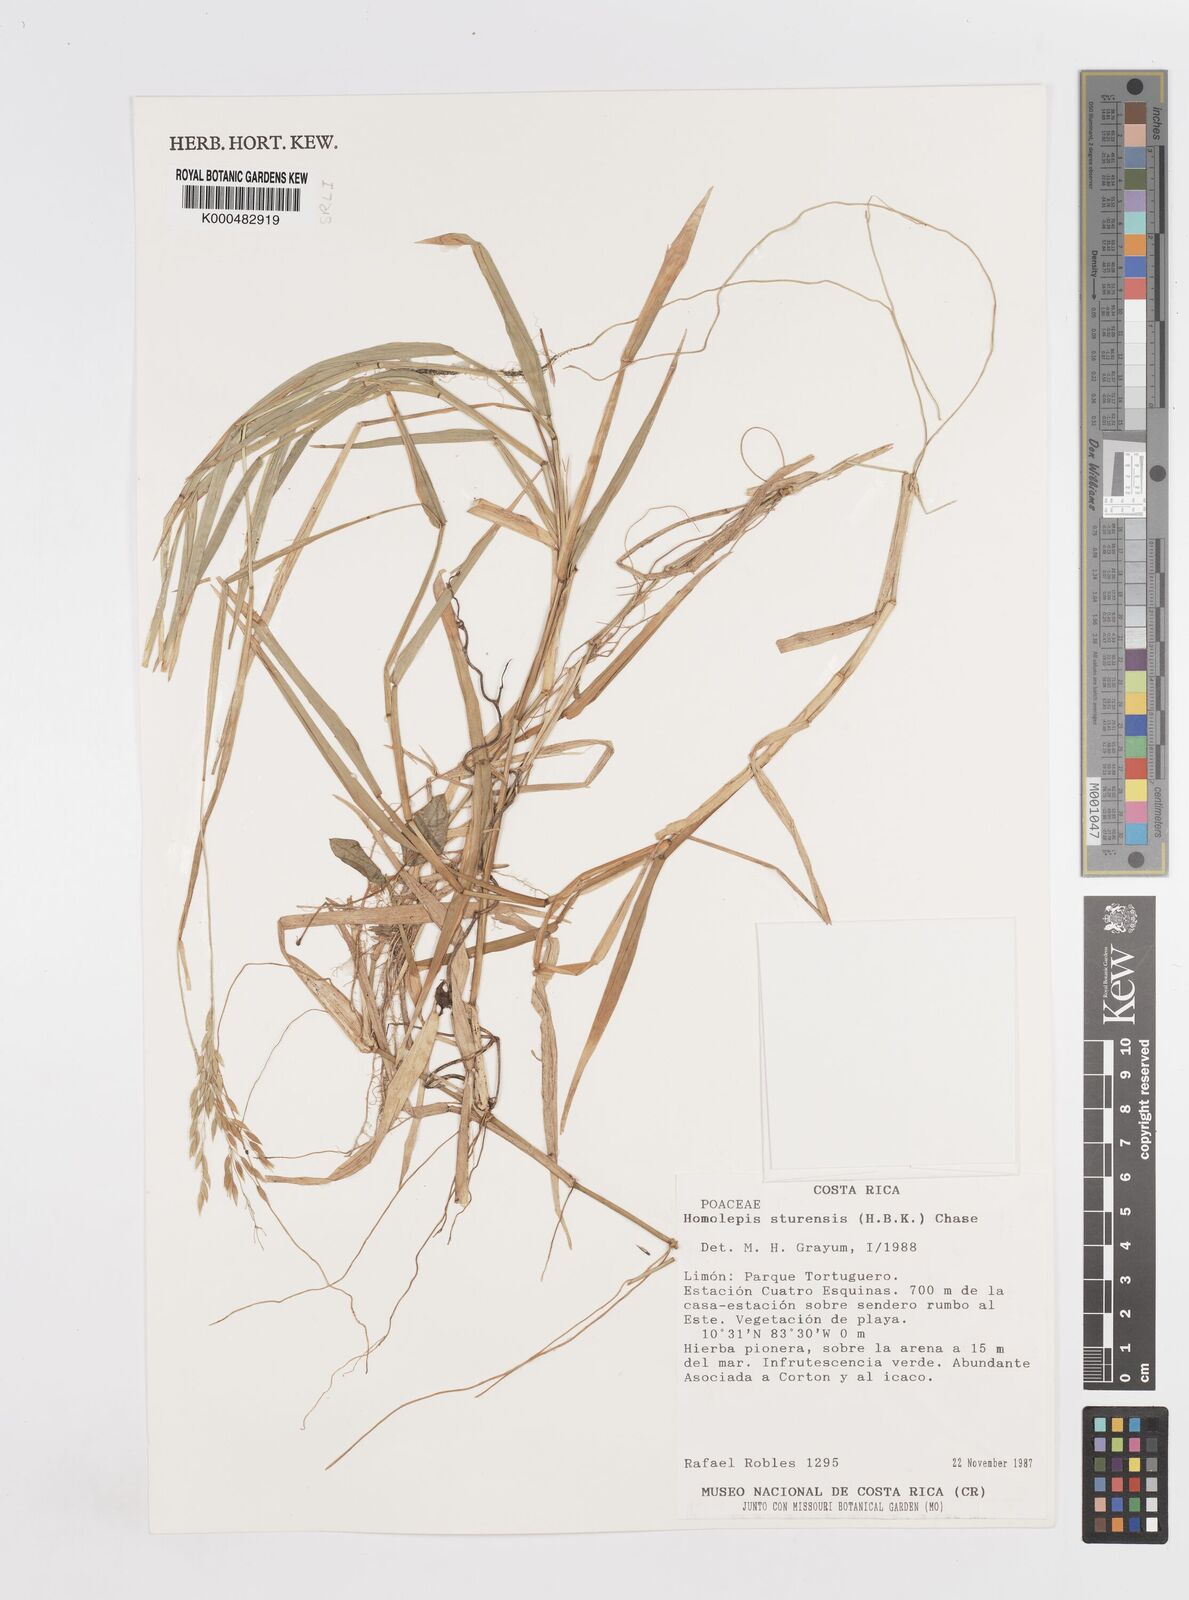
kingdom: Plantae
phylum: Tracheophyta
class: Liliopsida
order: Poales
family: Poaceae
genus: Homolepis
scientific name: Homolepis aturensis
